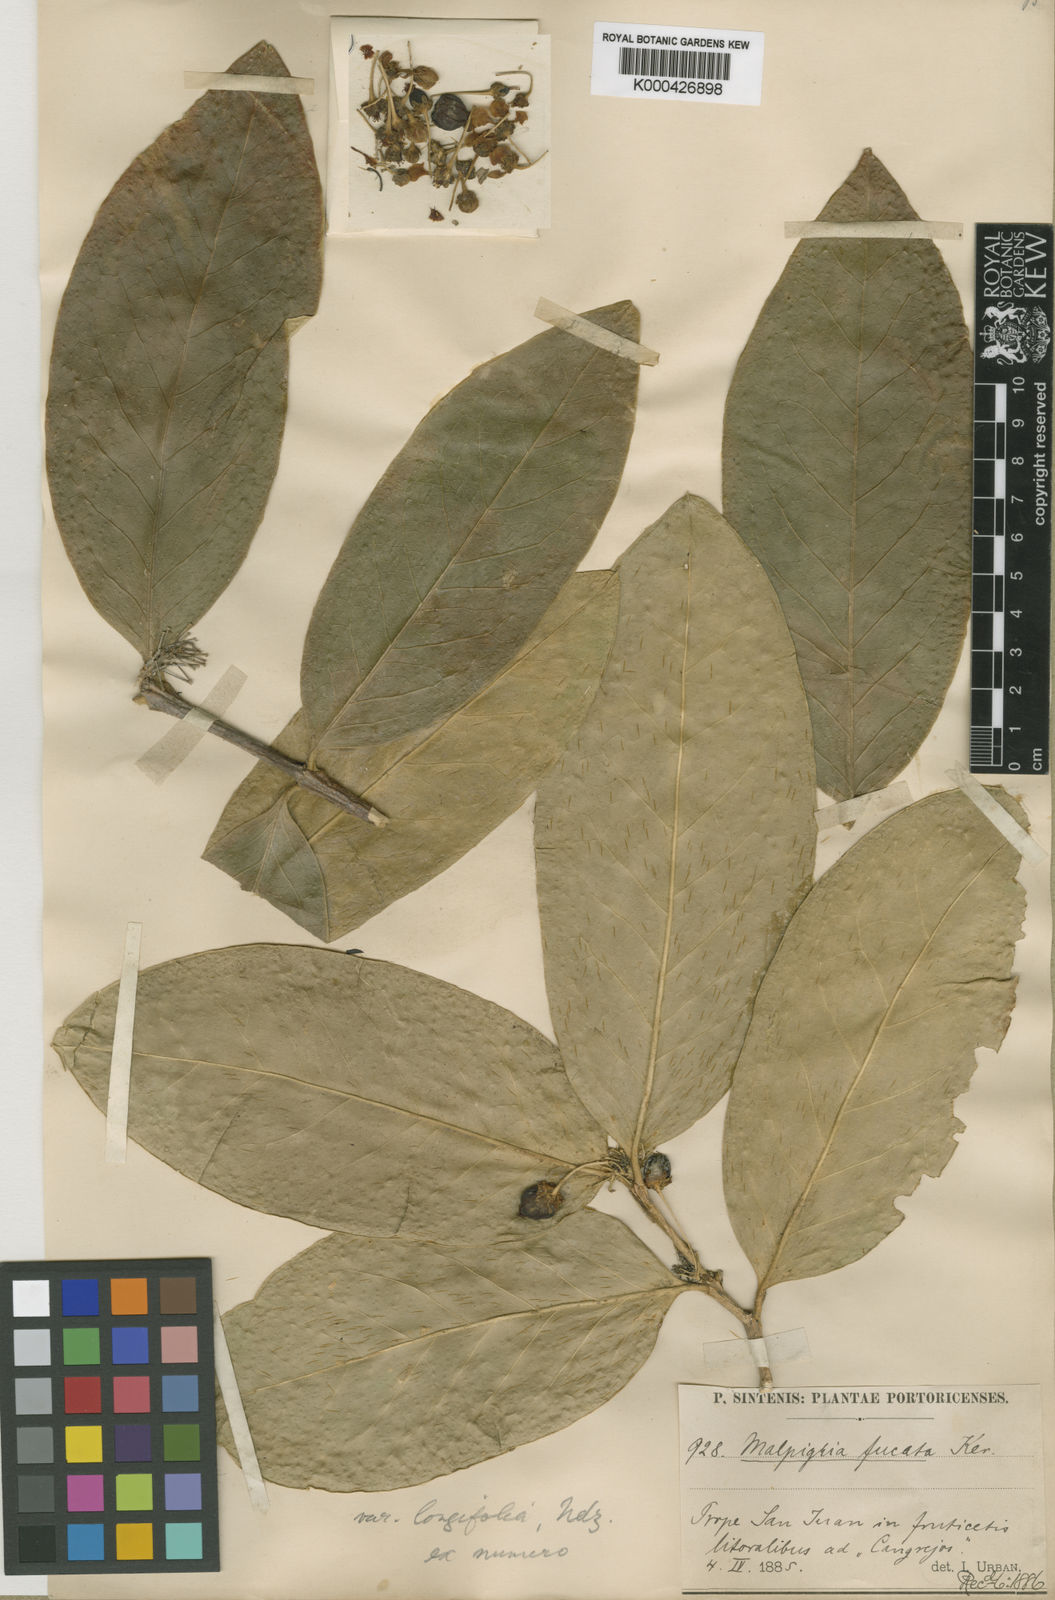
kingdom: Plantae
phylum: Tracheophyta
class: Magnoliopsida
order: Malpighiales
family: Malpighiaceae
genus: Malpighia
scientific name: Malpighia fucata
